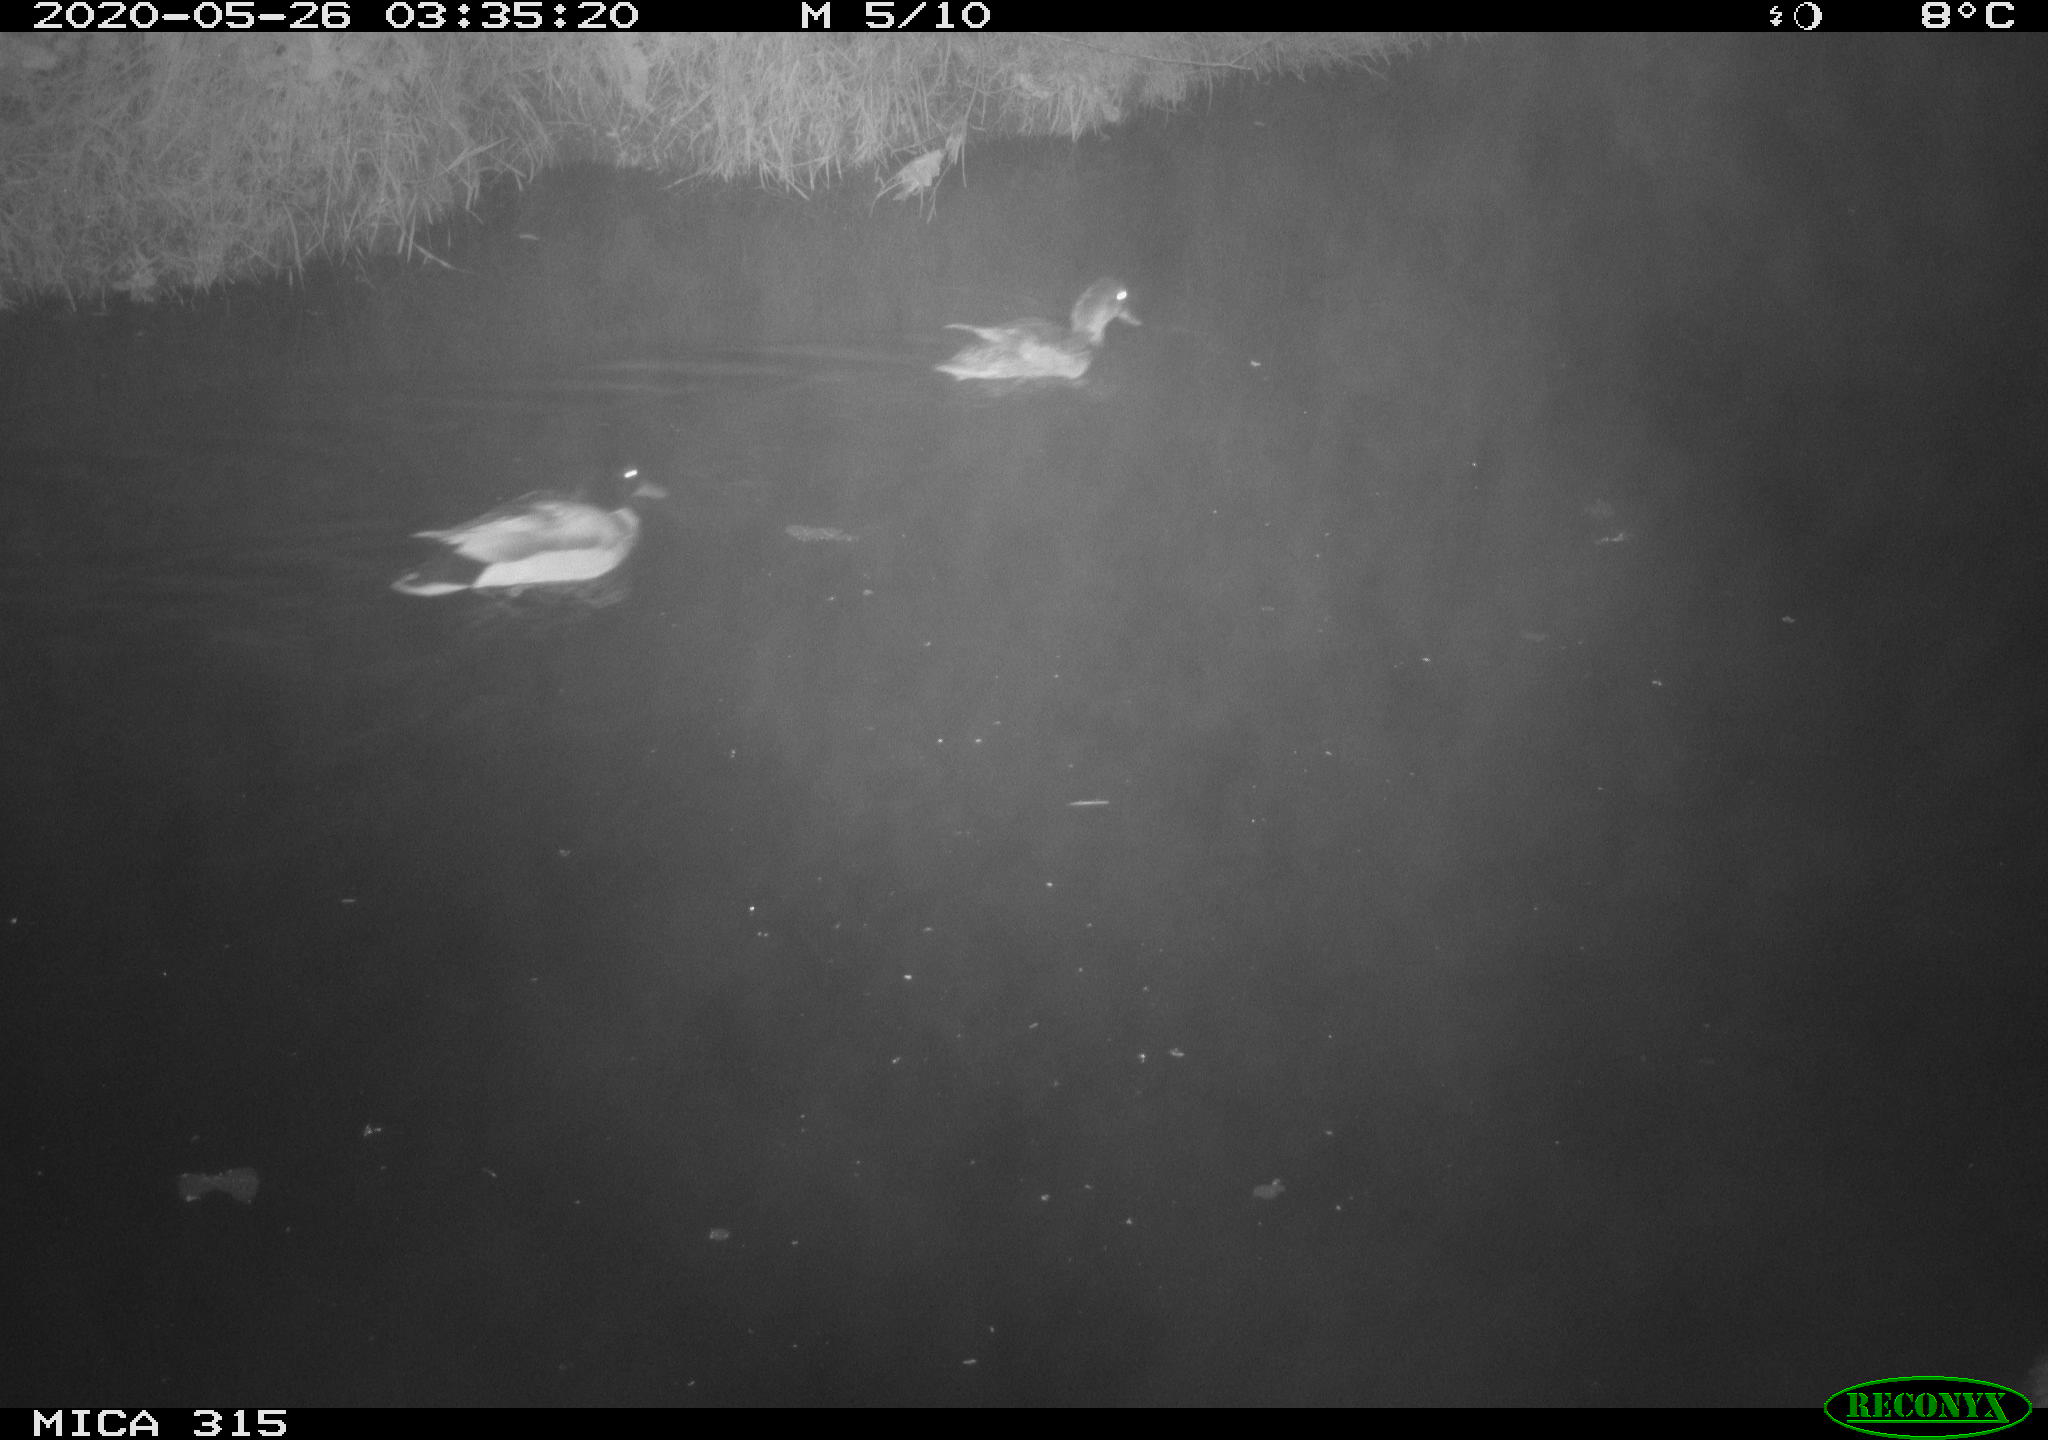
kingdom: Animalia
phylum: Chordata
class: Aves
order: Anseriformes
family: Anatidae
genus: Anas
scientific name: Anas platyrhynchos
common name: Mallard
